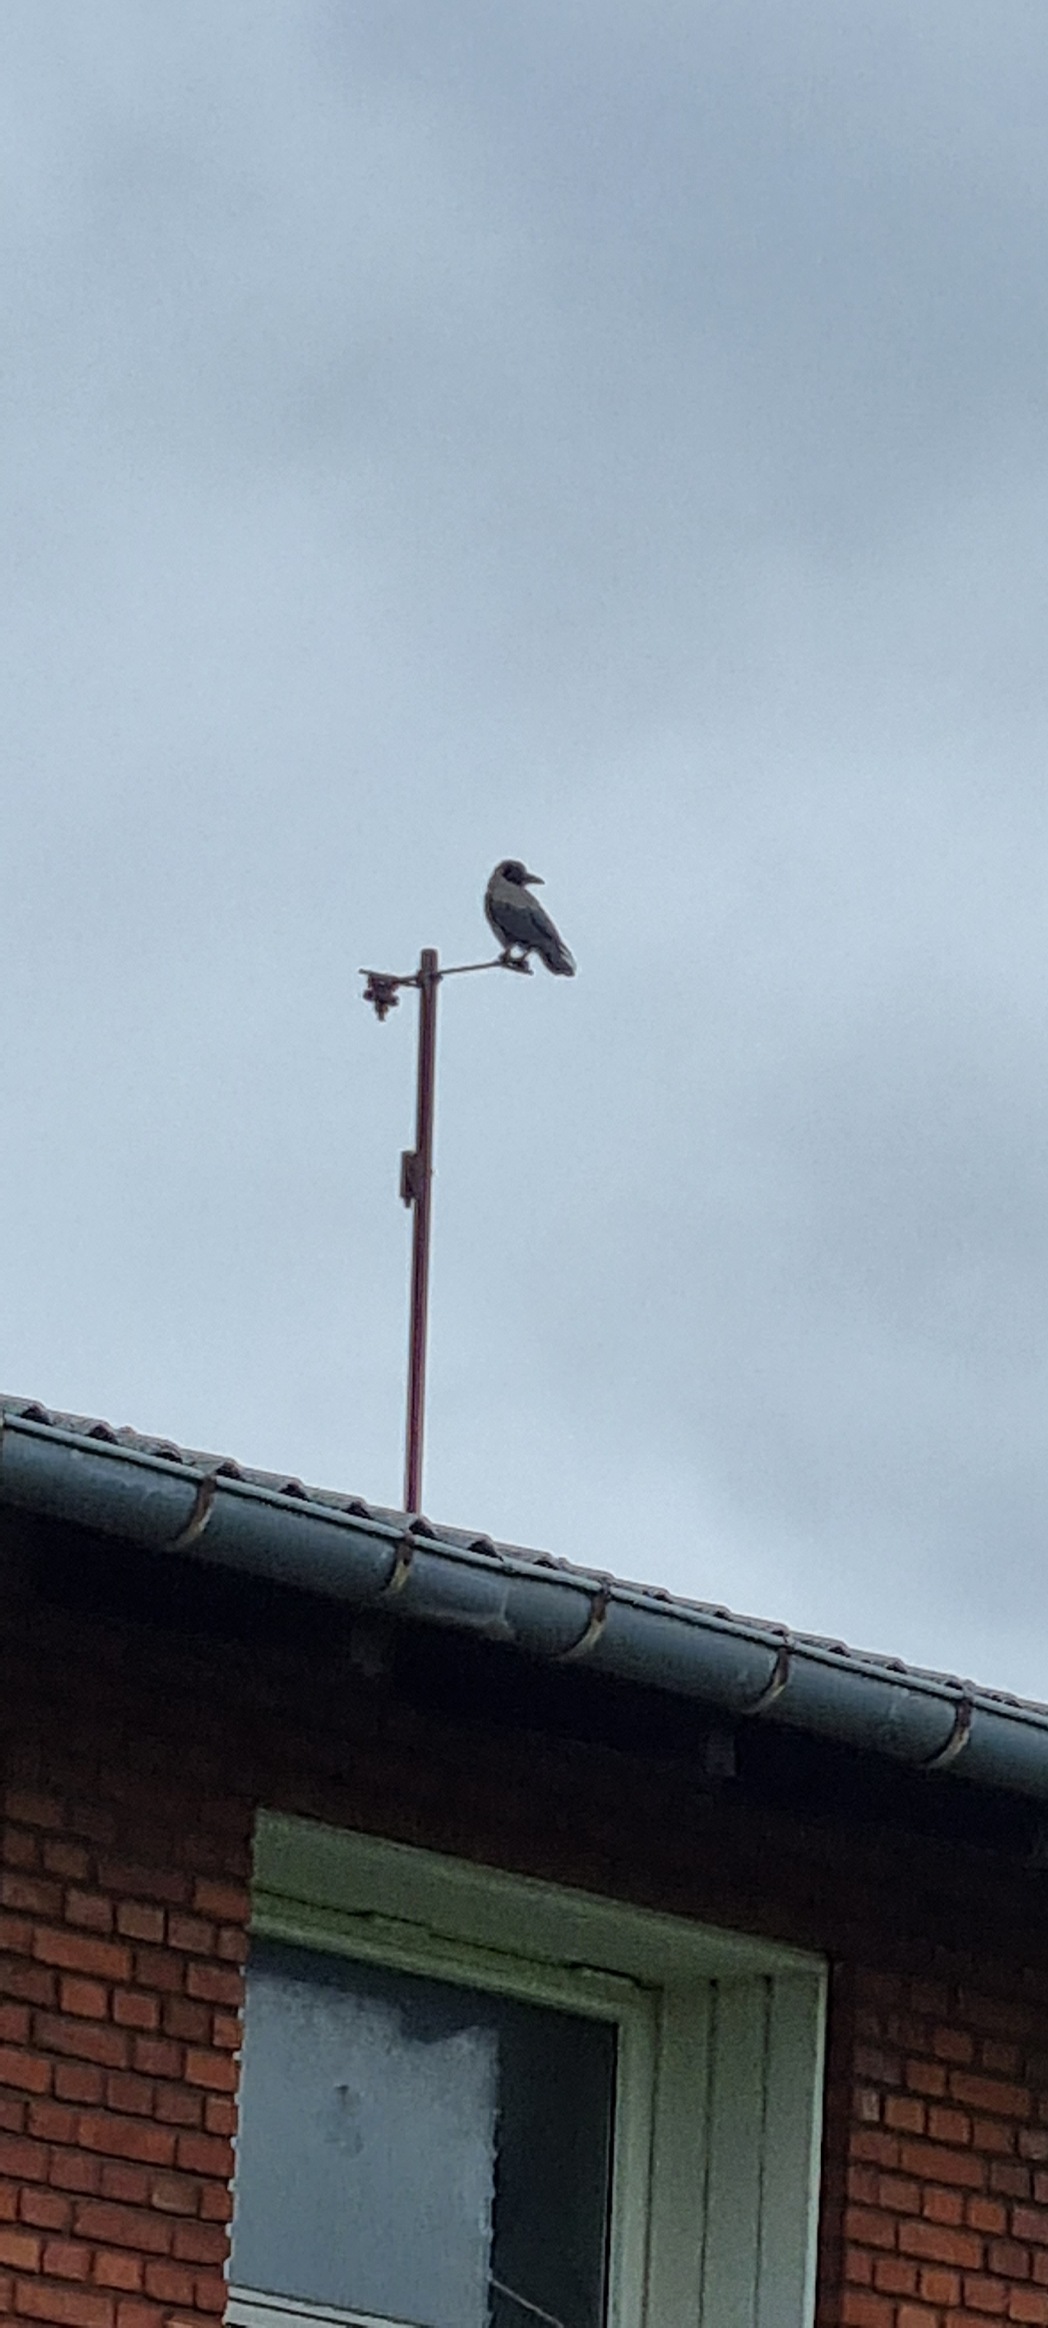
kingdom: Animalia
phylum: Chordata
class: Aves
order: Passeriformes
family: Corvidae
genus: Corvus
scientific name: Corvus cornix
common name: Gråkrage
